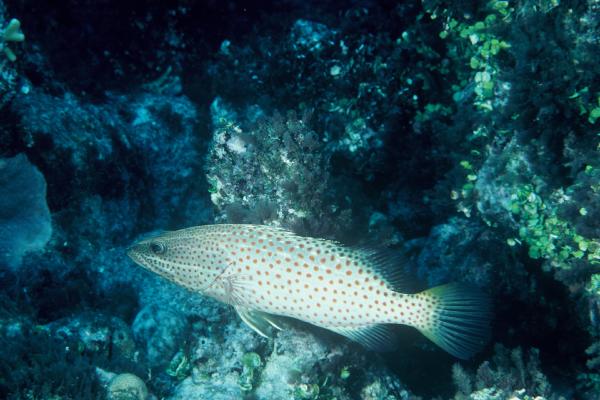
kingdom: Animalia
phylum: Chordata
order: Perciformes
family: Serranidae
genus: Anyperodon
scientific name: Anyperodon leucogrammicus
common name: Slender grouper
